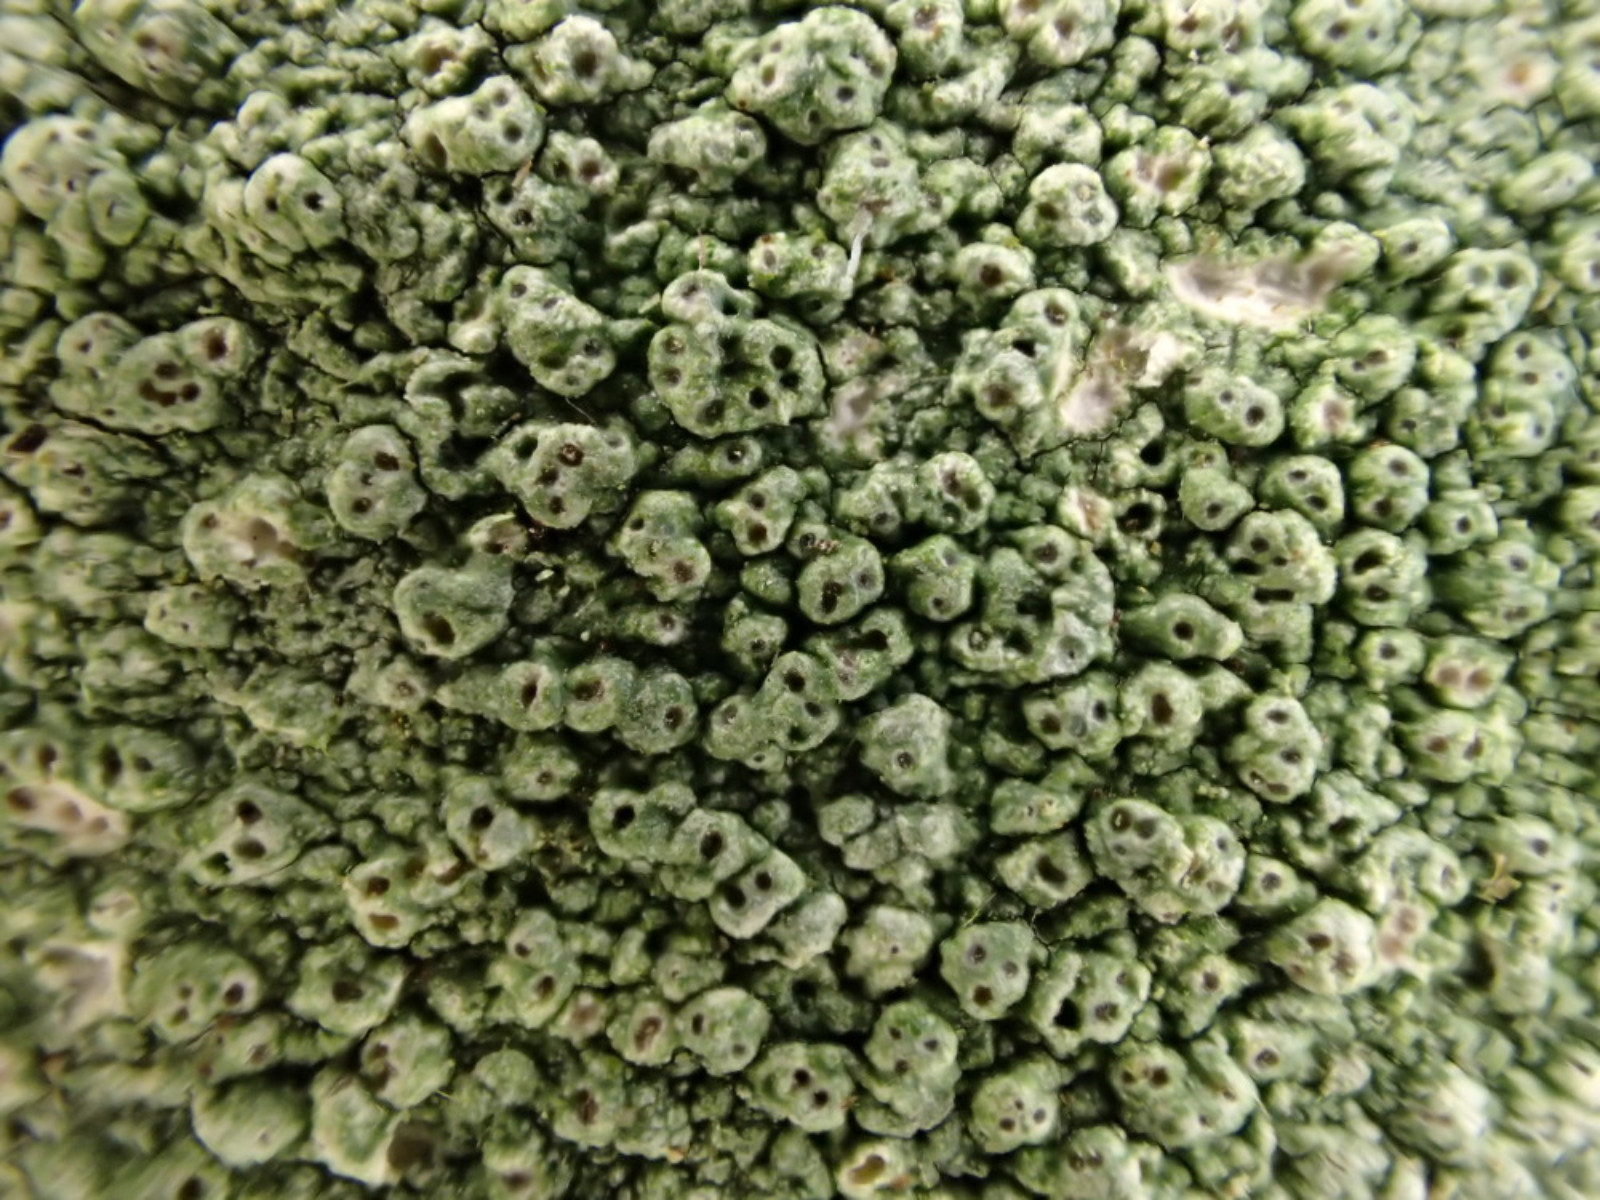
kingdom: Fungi
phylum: Ascomycota
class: Lecanoromycetes
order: Pertusariales
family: Pertusariaceae
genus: Pertusaria
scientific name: Pertusaria pertusa
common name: almindelig prikvortelav
